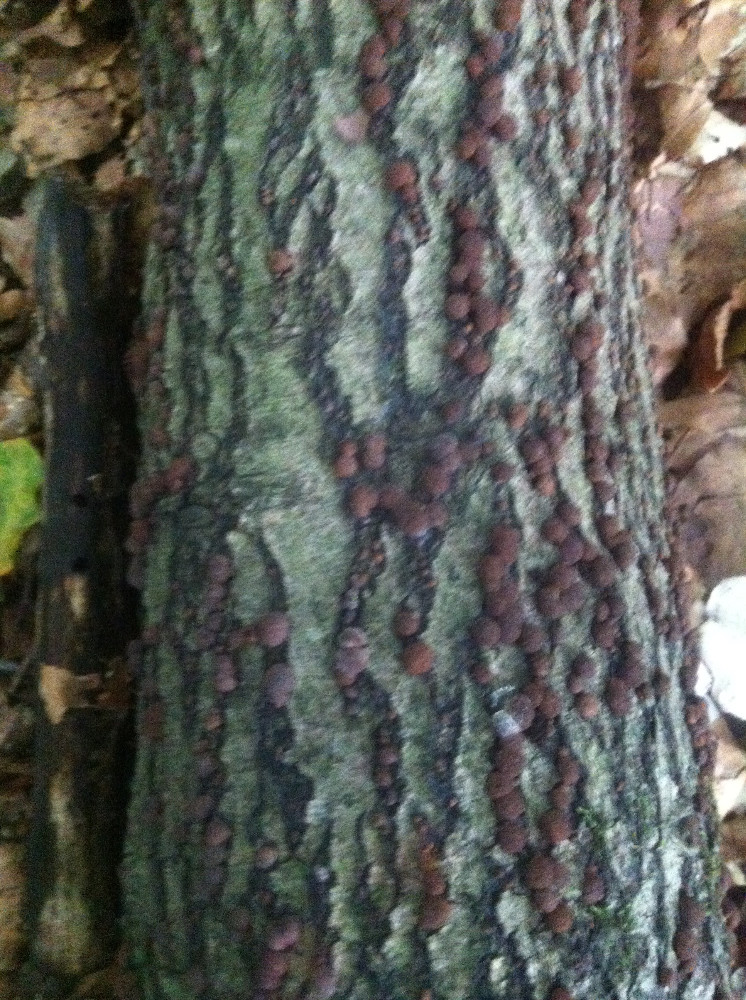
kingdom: Fungi
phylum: Ascomycota
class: Sordariomycetes
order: Xylariales
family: Hypoxylaceae
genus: Hypoxylon
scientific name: Hypoxylon fragiforme
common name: kuljordbær
